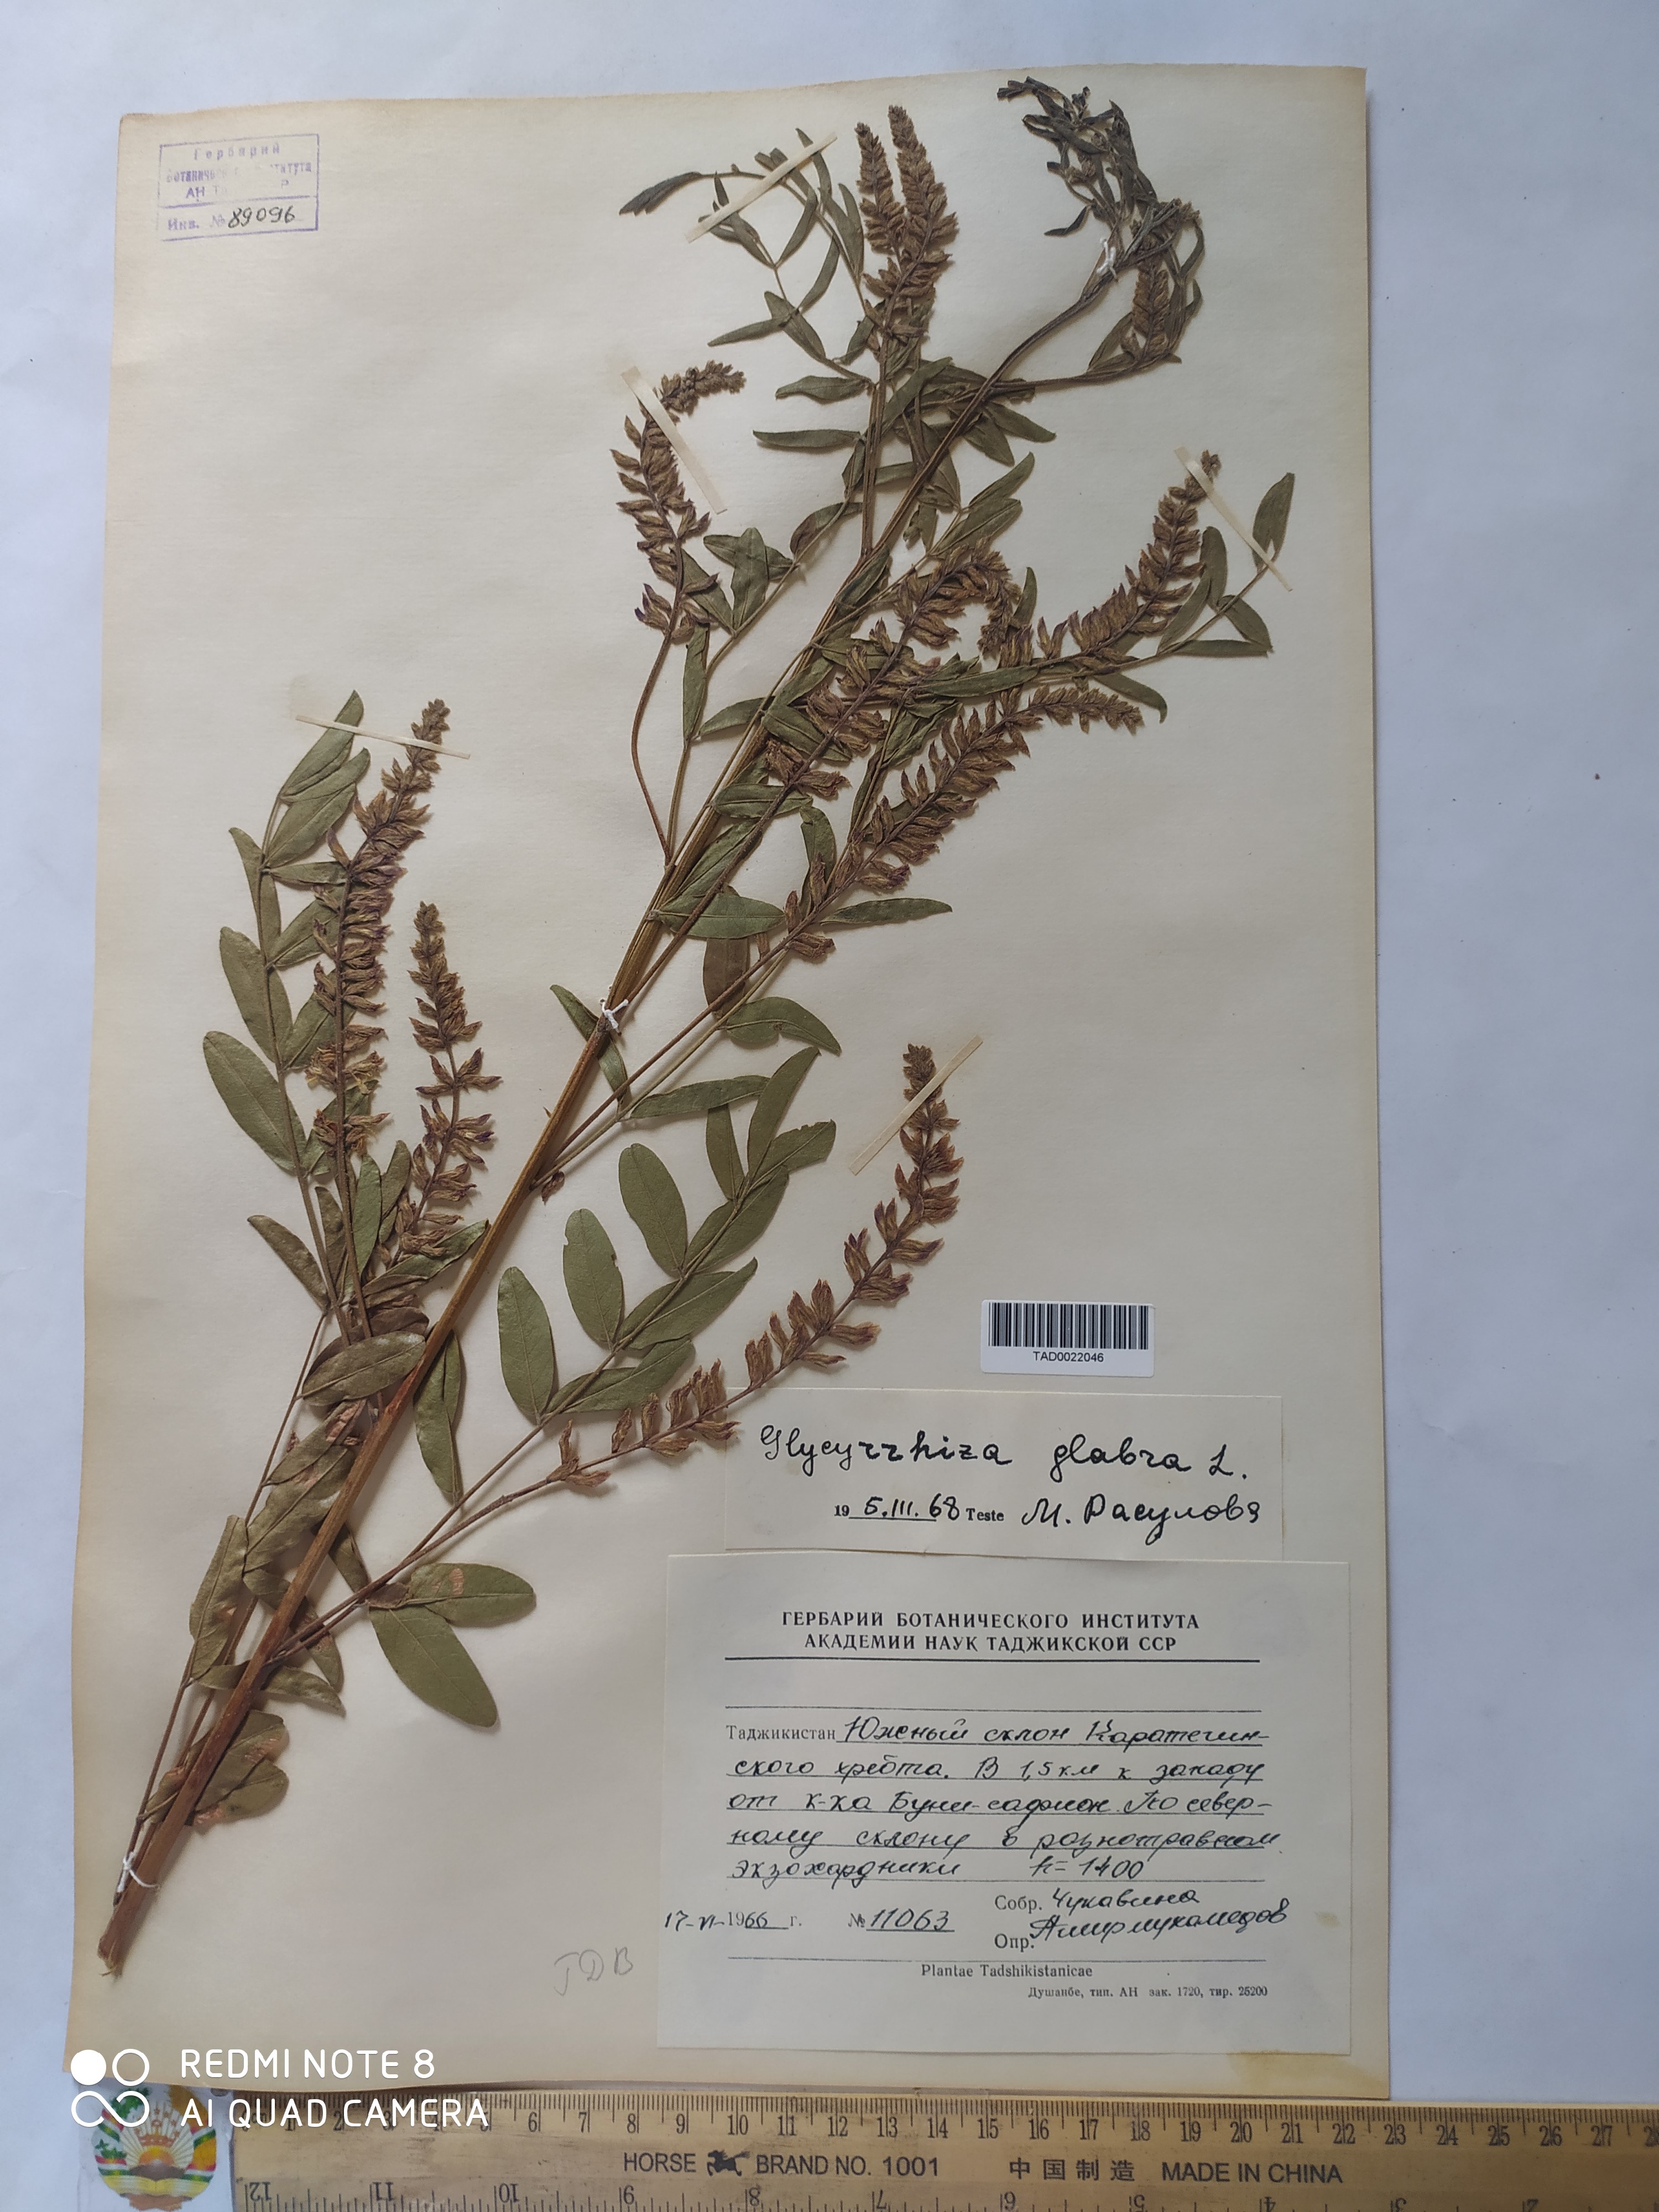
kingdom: Plantae
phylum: Tracheophyta
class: Magnoliopsida
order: Fabales
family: Fabaceae
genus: Glycyrrhiza
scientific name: Glycyrrhiza glabra
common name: Liquorice
